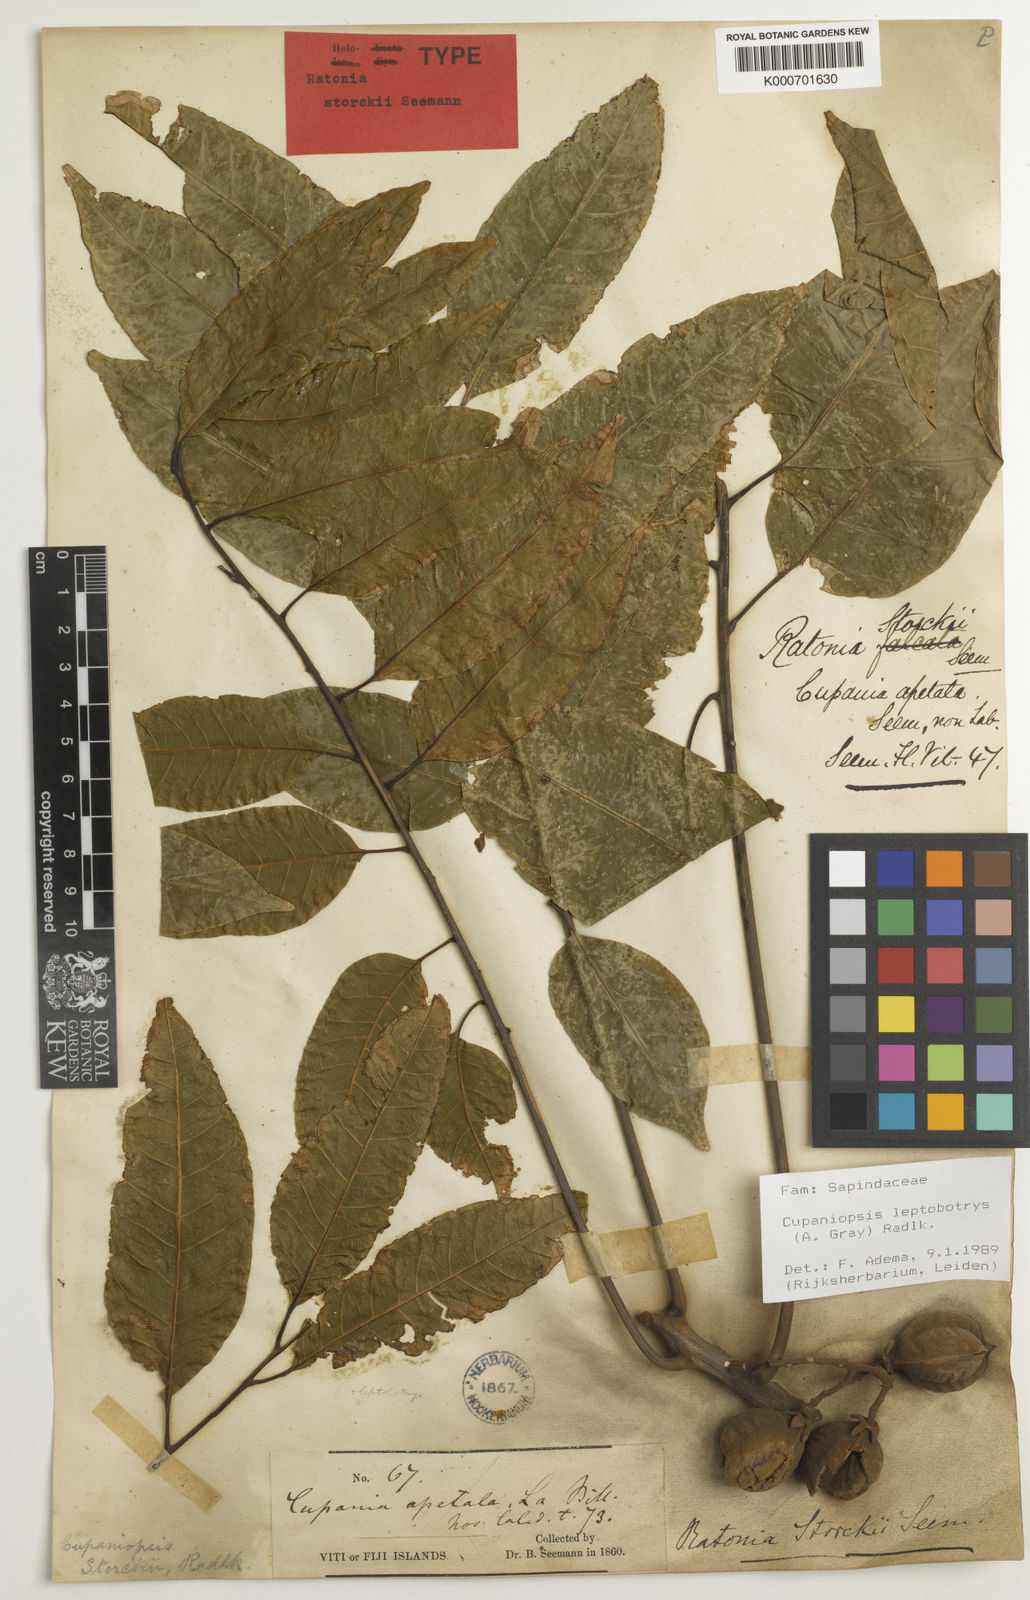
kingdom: Plantae
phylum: Tracheophyta
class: Magnoliopsida
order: Sapindales
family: Sapindaceae
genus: Cupaniopsis
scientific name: Cupaniopsis leptobotrys
